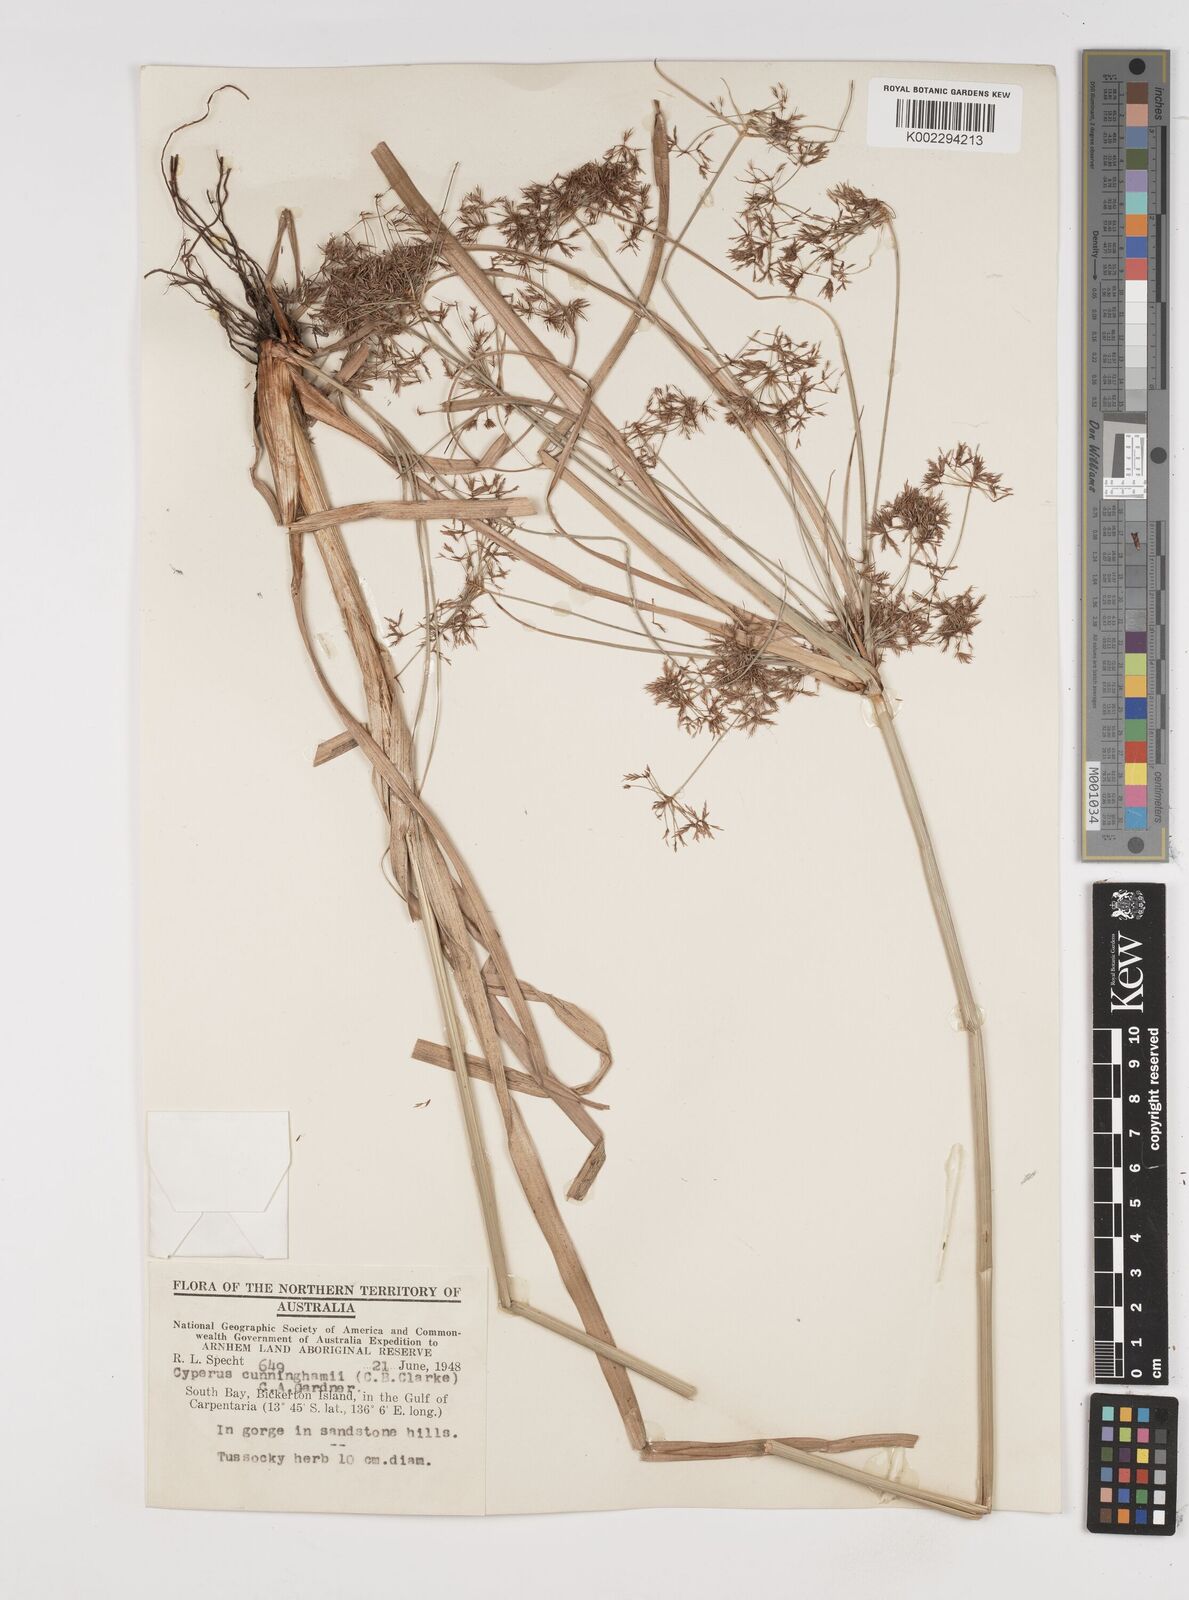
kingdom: Plantae
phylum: Tracheophyta
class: Liliopsida
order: Poales
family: Cyperaceae
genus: Cyperus
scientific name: Cyperus cunninghamii
